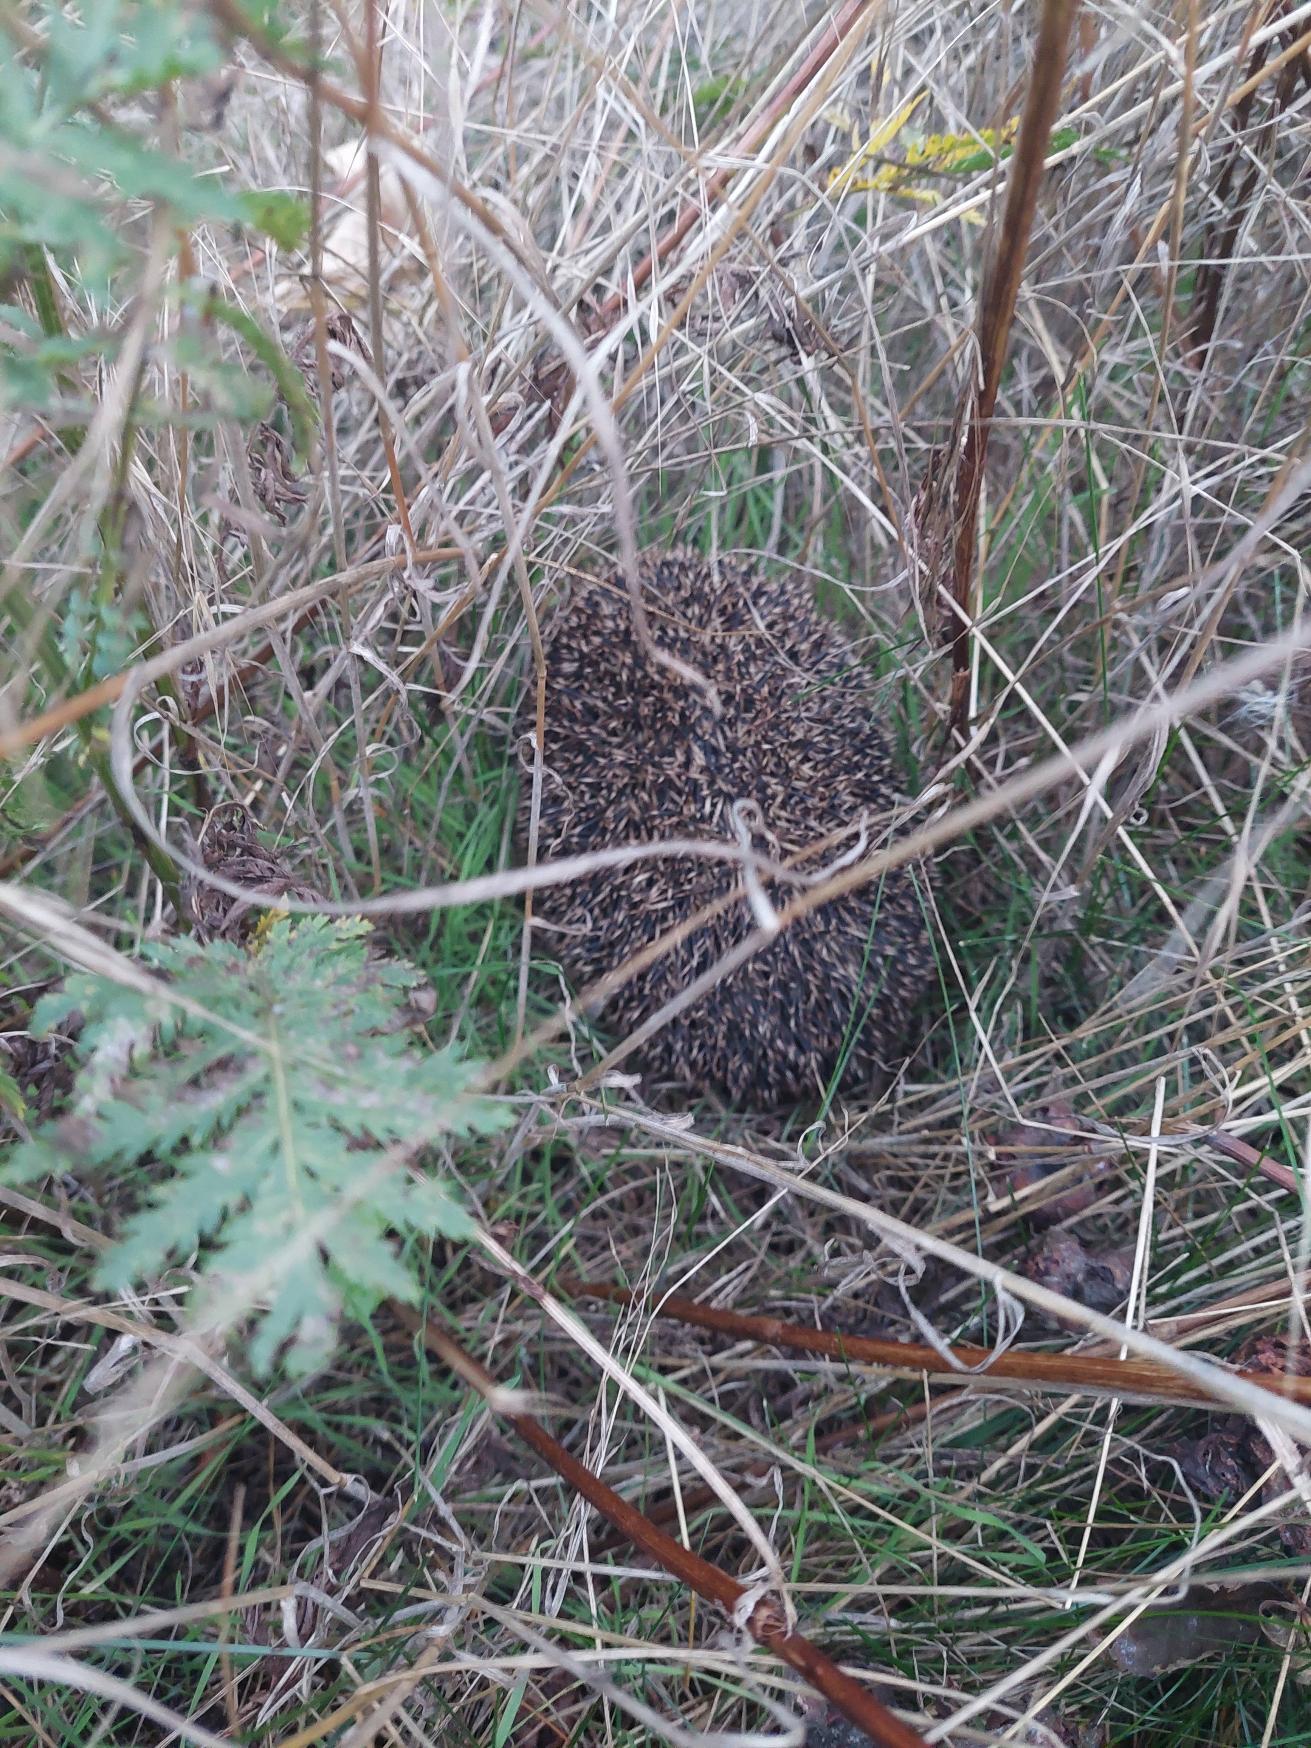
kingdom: Animalia
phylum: Chordata
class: Mammalia
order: Erinaceomorpha
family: Erinaceidae
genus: Erinaceus
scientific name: Erinaceus europaeus
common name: Pindsvin
